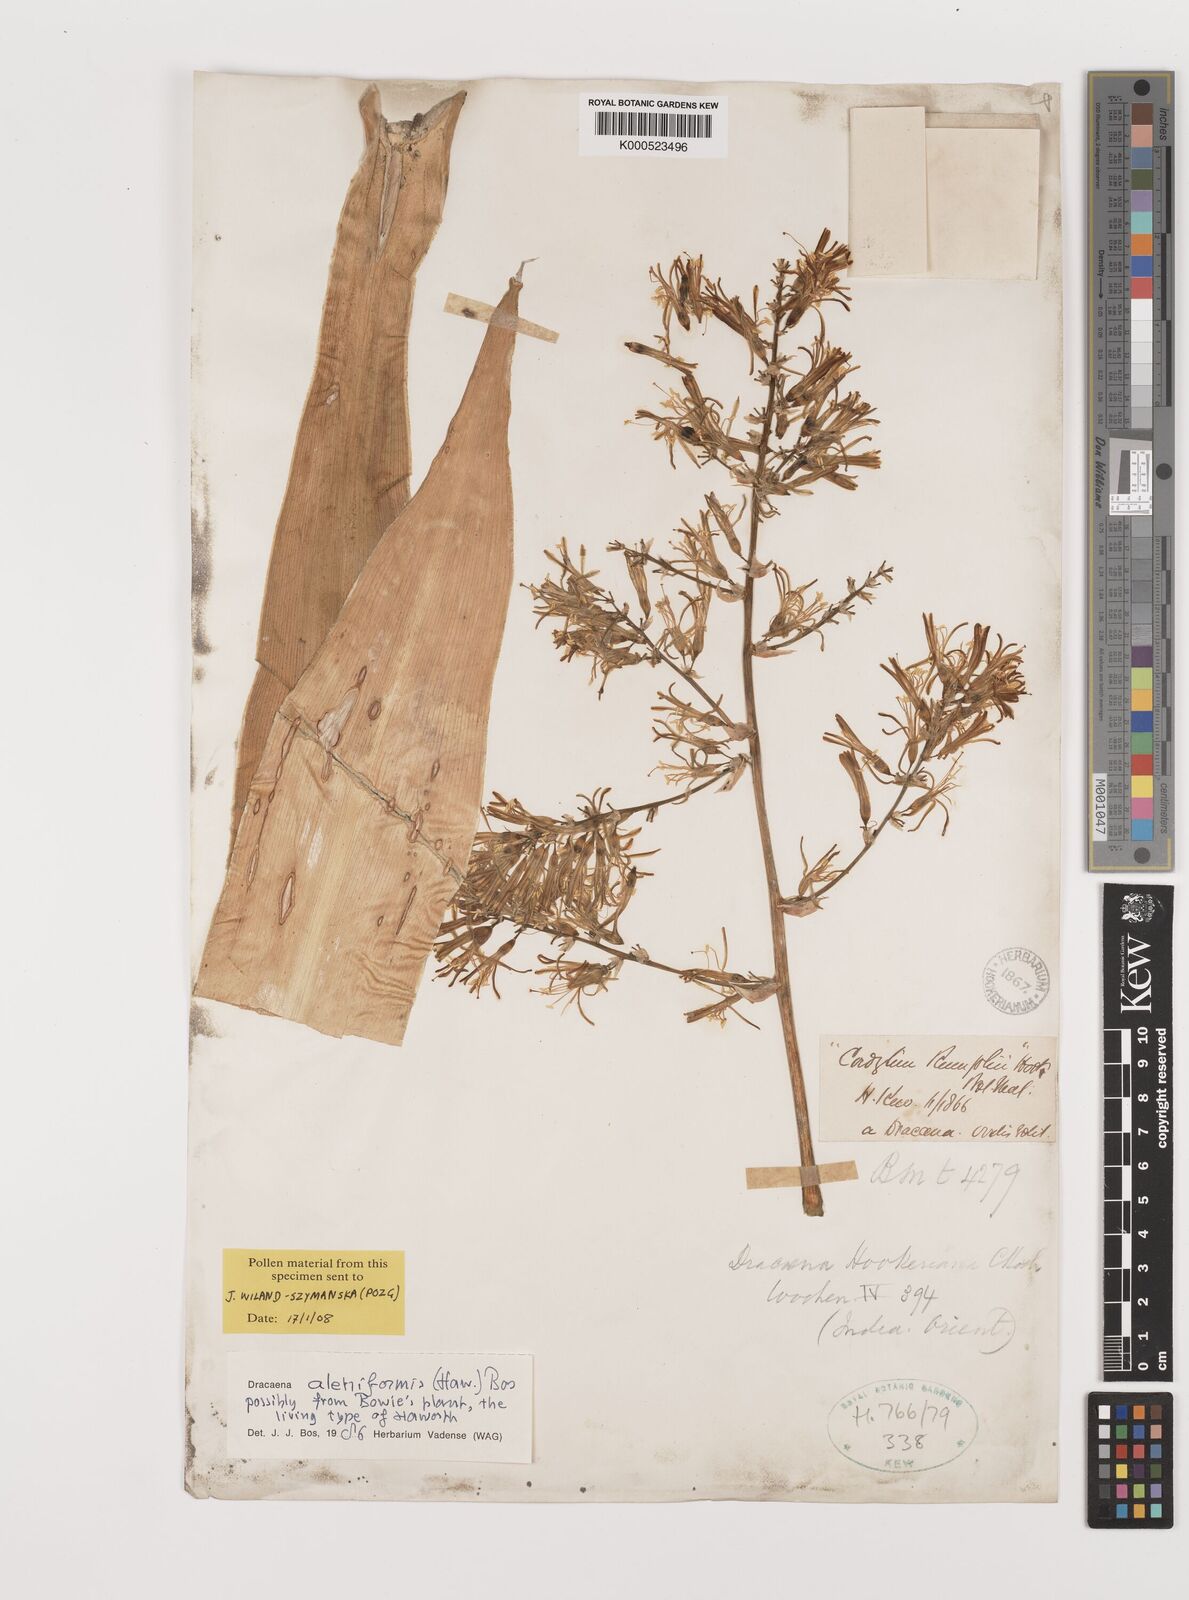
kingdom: Plantae
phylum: Tracheophyta
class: Liliopsida
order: Asparagales
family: Asparagaceae
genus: Dracaena
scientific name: Dracaena aletriformis
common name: Large-leaved dragon tree
